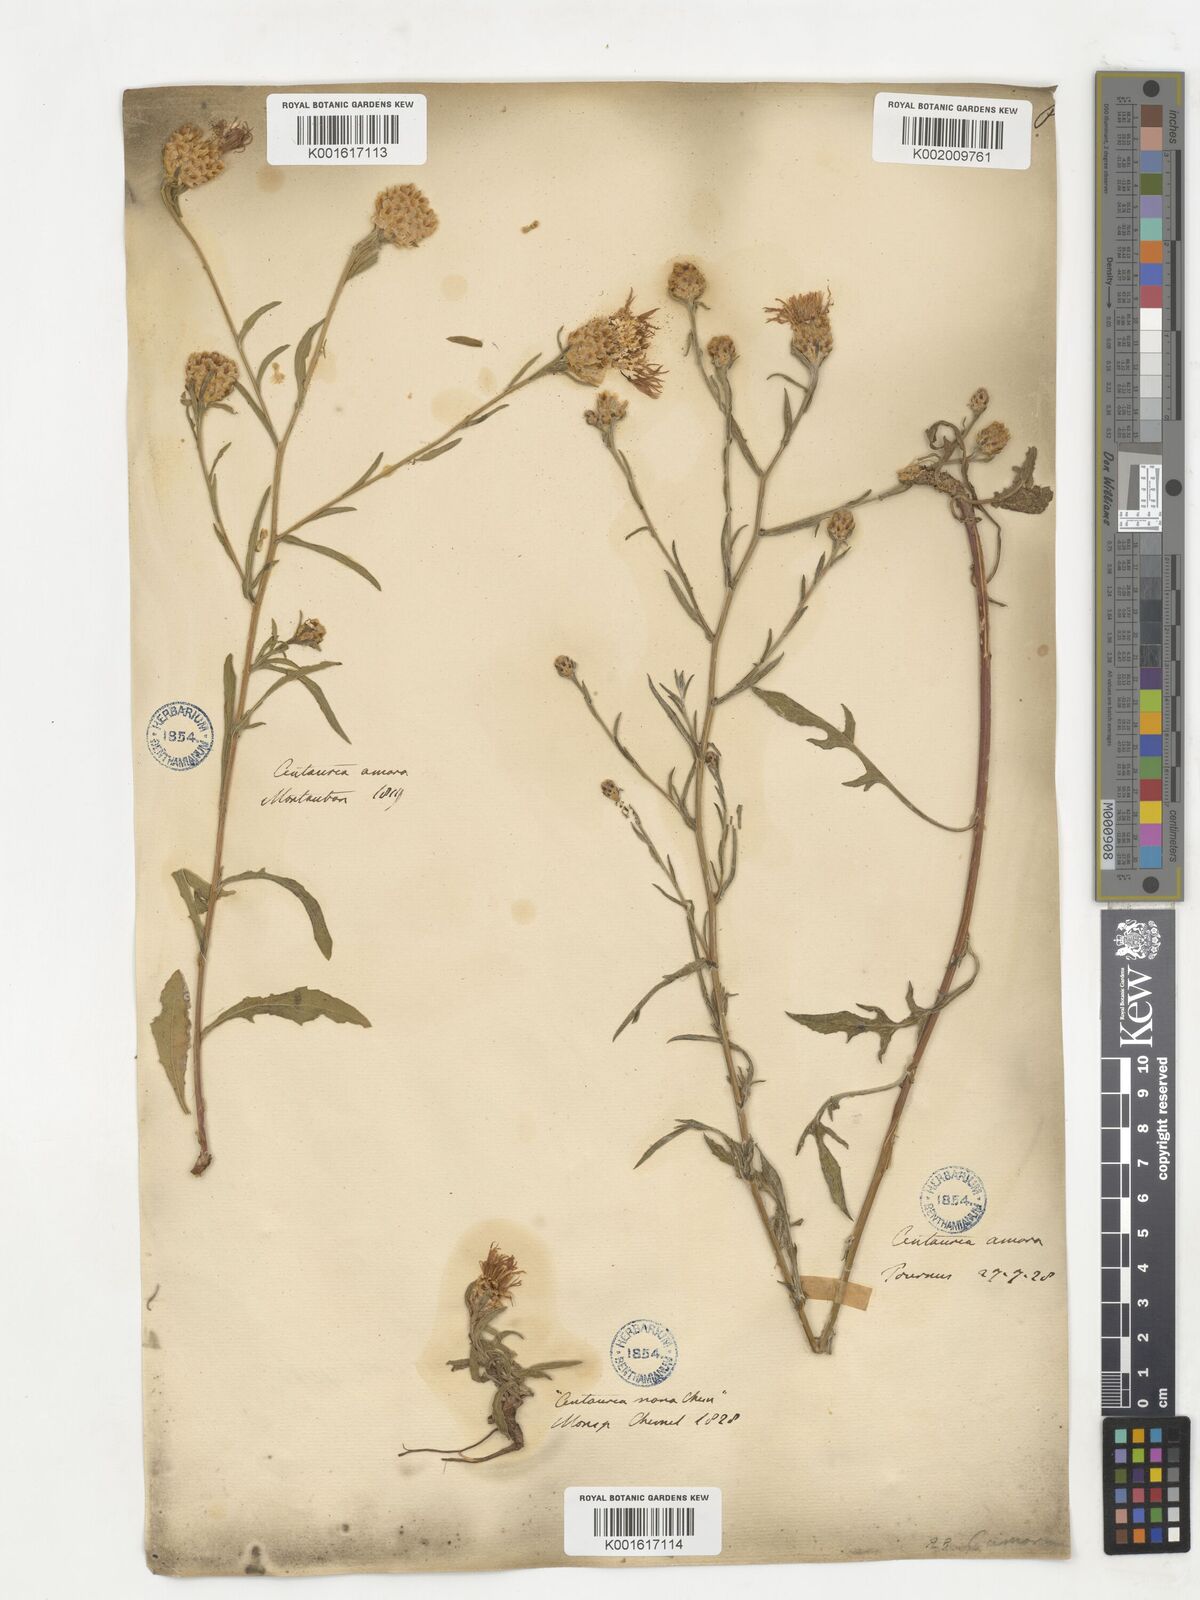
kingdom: Plantae
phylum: Tracheophyta
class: Magnoliopsida
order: Asterales
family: Asteraceae
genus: Centaurea
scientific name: Centaurea jacea
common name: Brown knapweed
